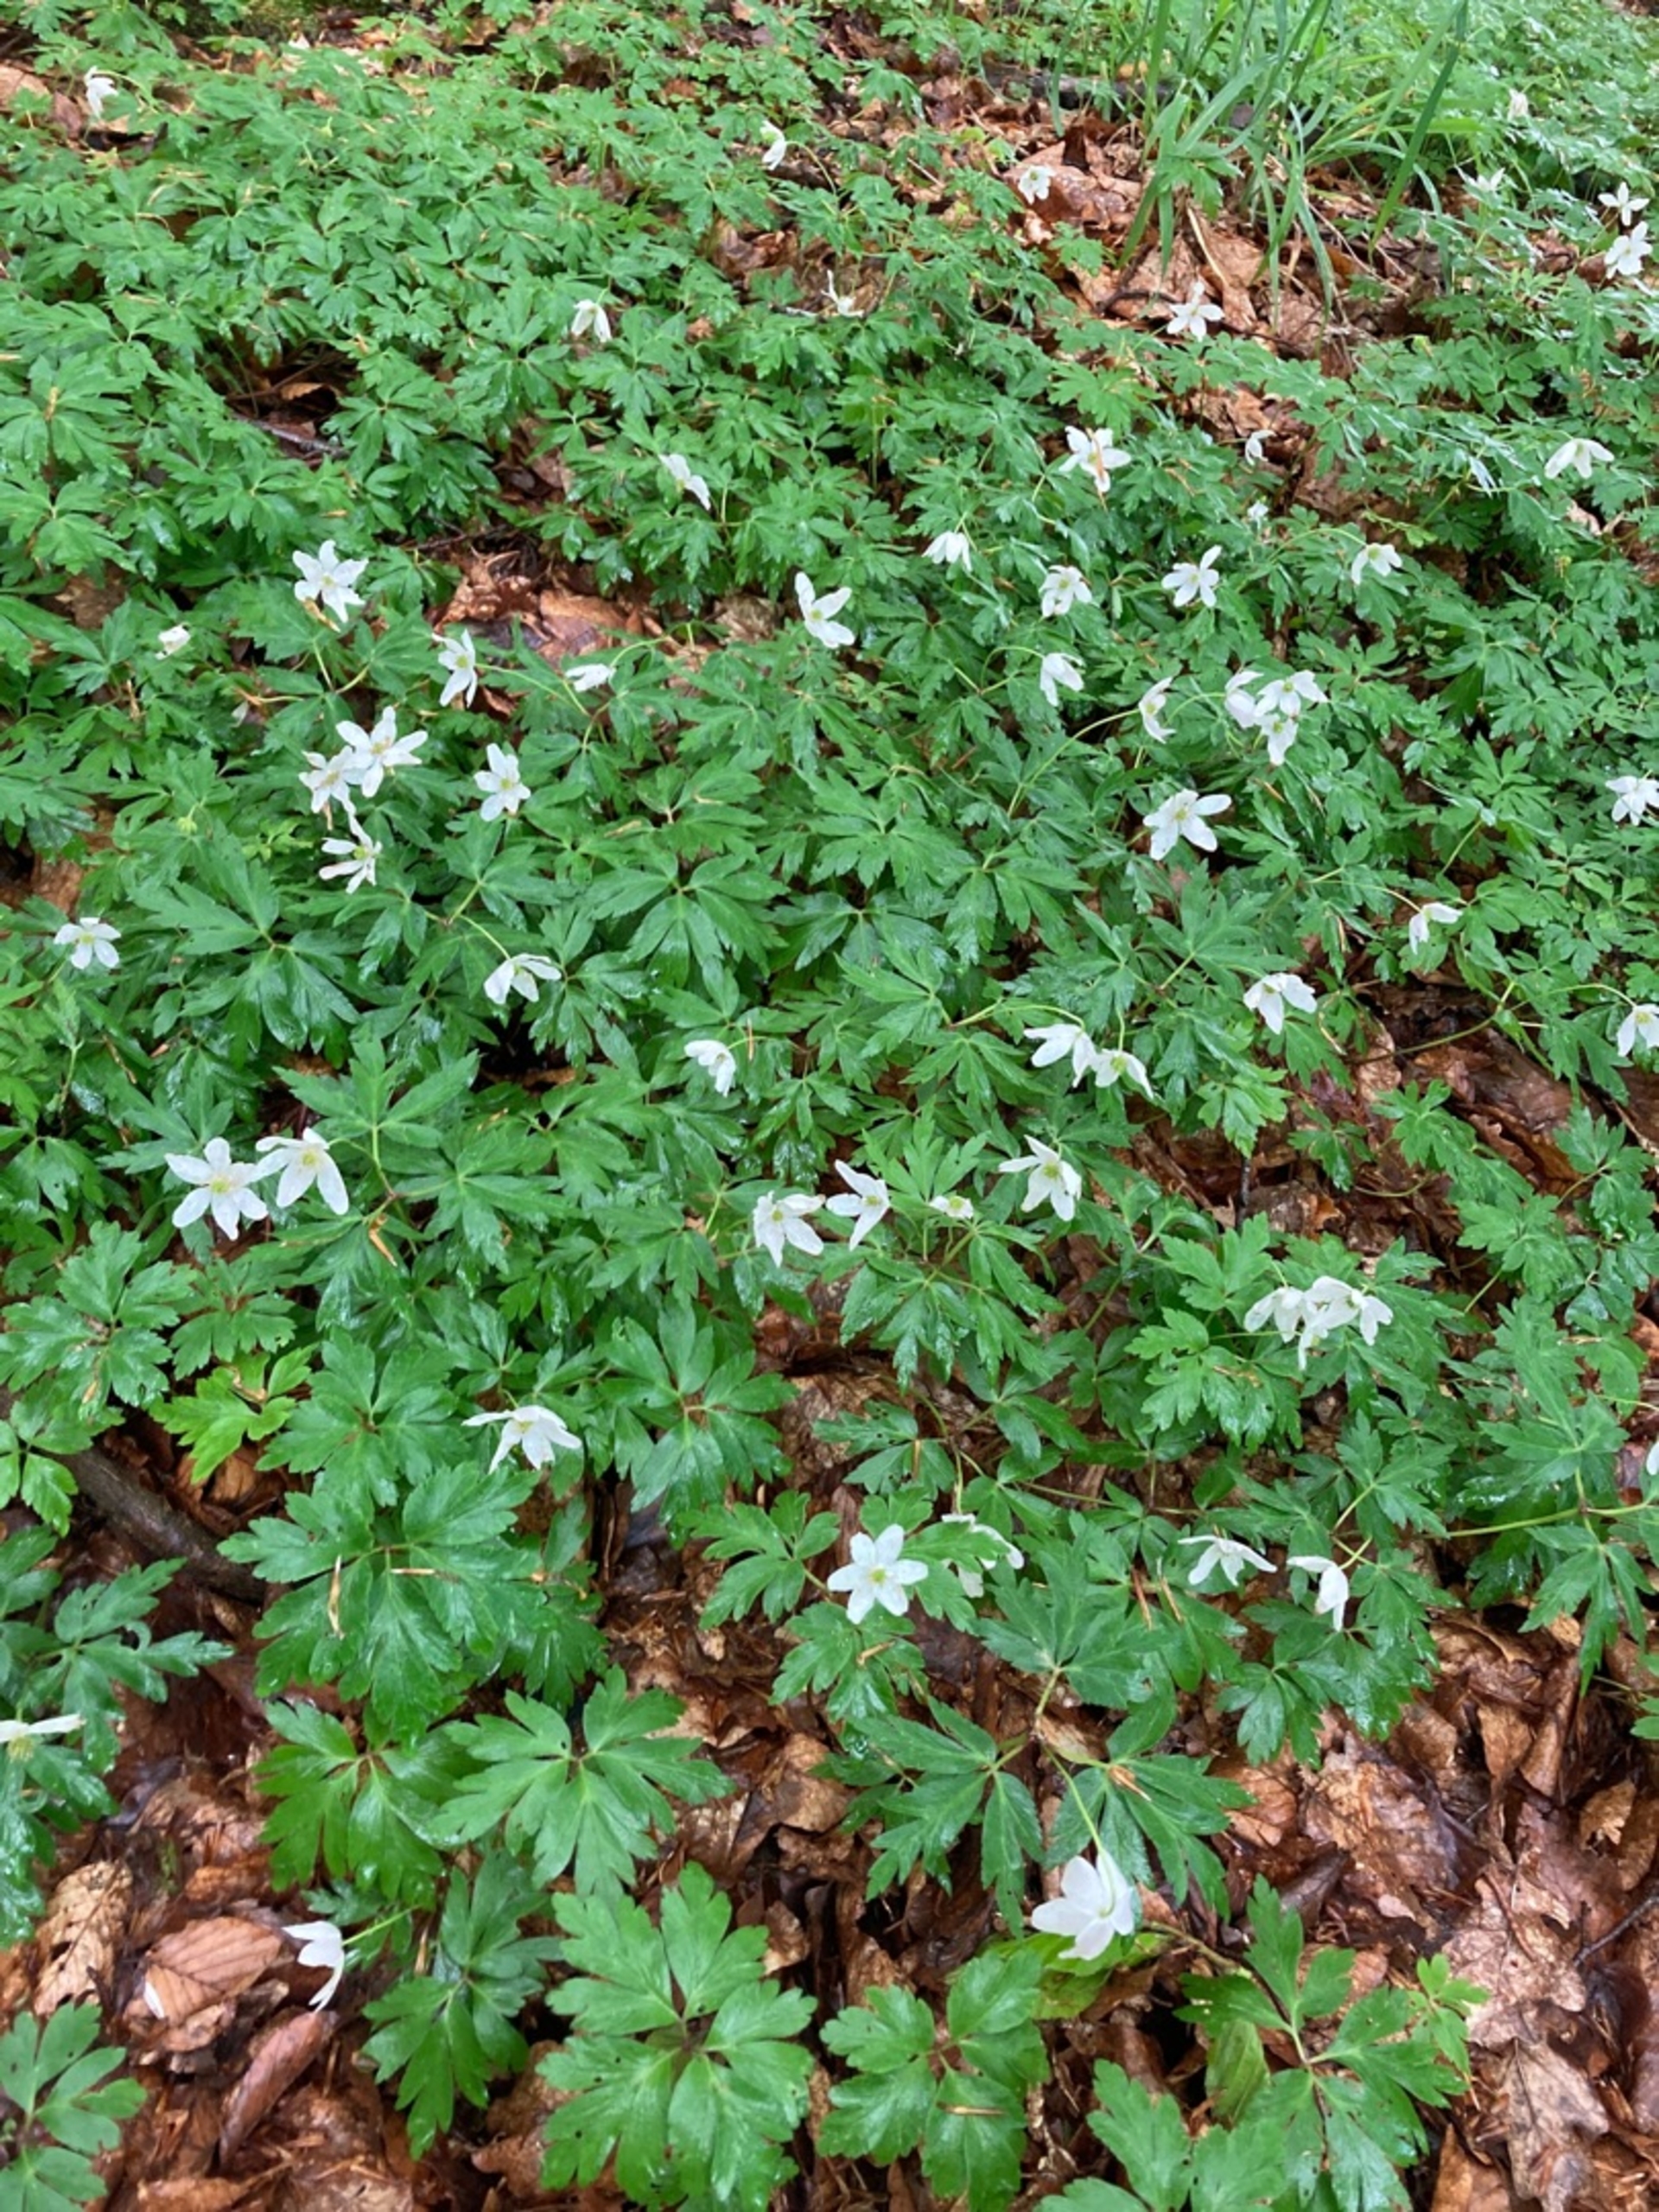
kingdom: Plantae
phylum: Tracheophyta
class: Magnoliopsida
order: Ranunculales
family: Ranunculaceae
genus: Anemone
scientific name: Anemone nemorosa
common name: Hvid anemone
